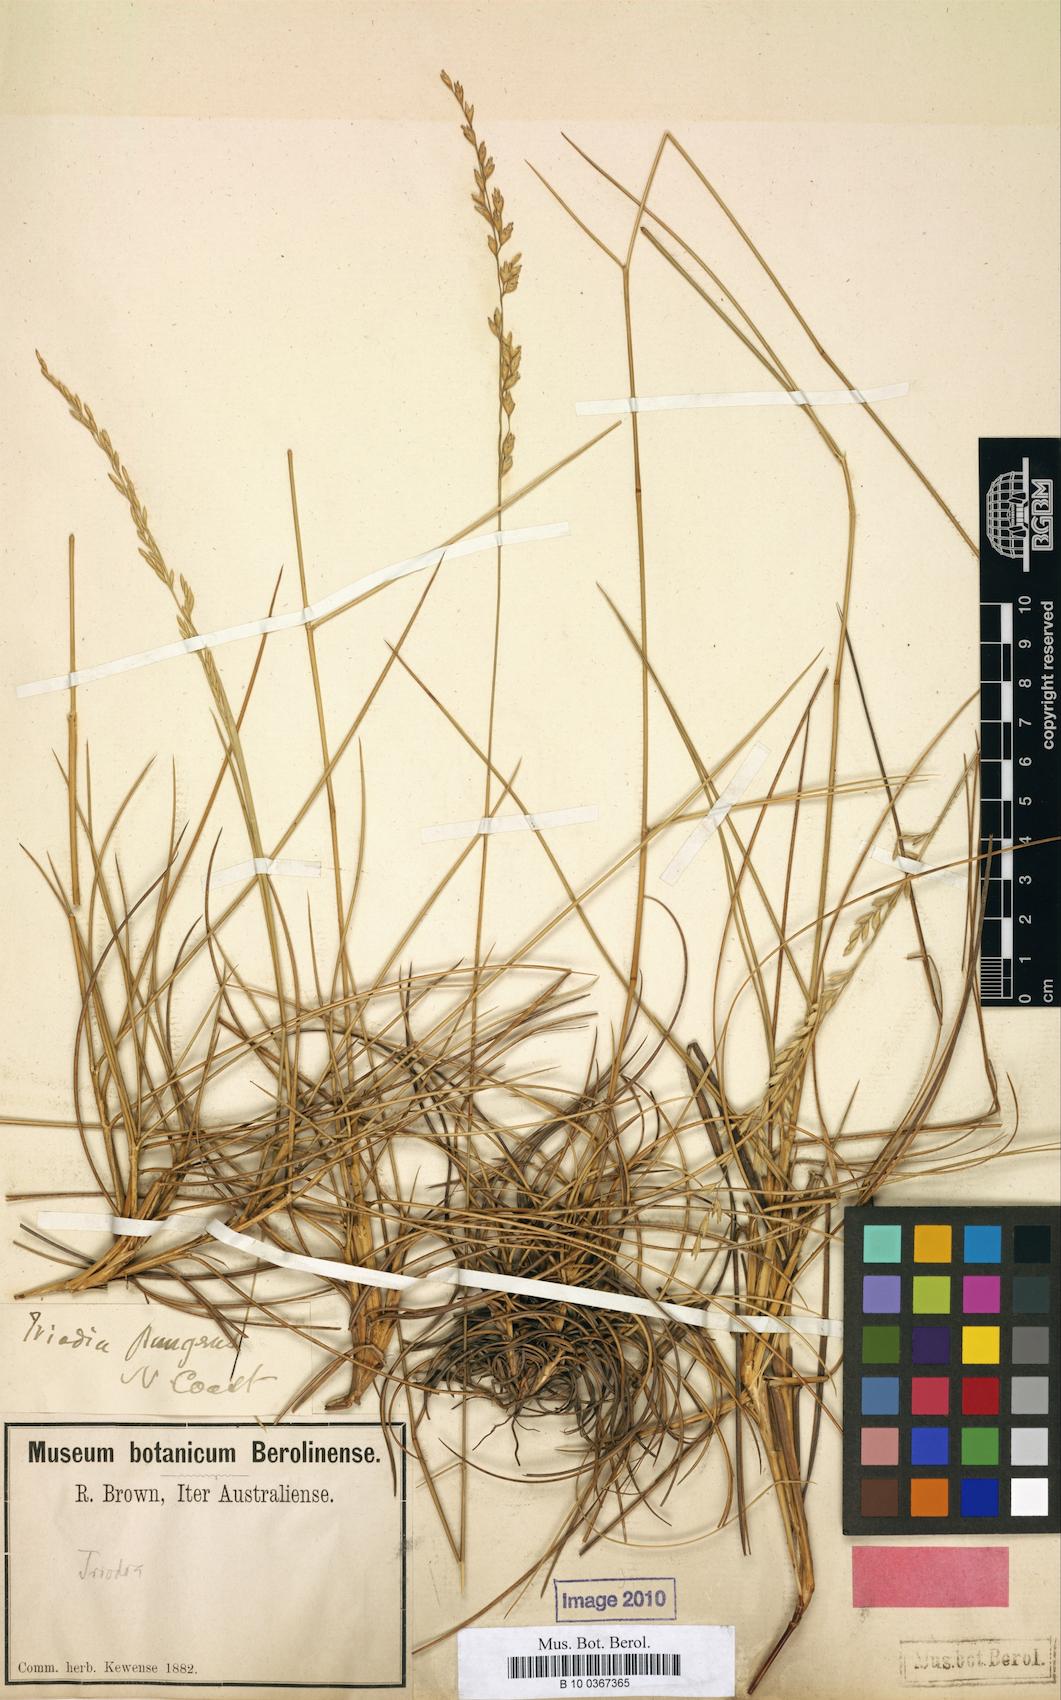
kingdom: Plantae
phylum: Tracheophyta
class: Liliopsida
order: Poales
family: Poaceae
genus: Triodia
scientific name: Triodia pungens
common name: Soft spinifex
